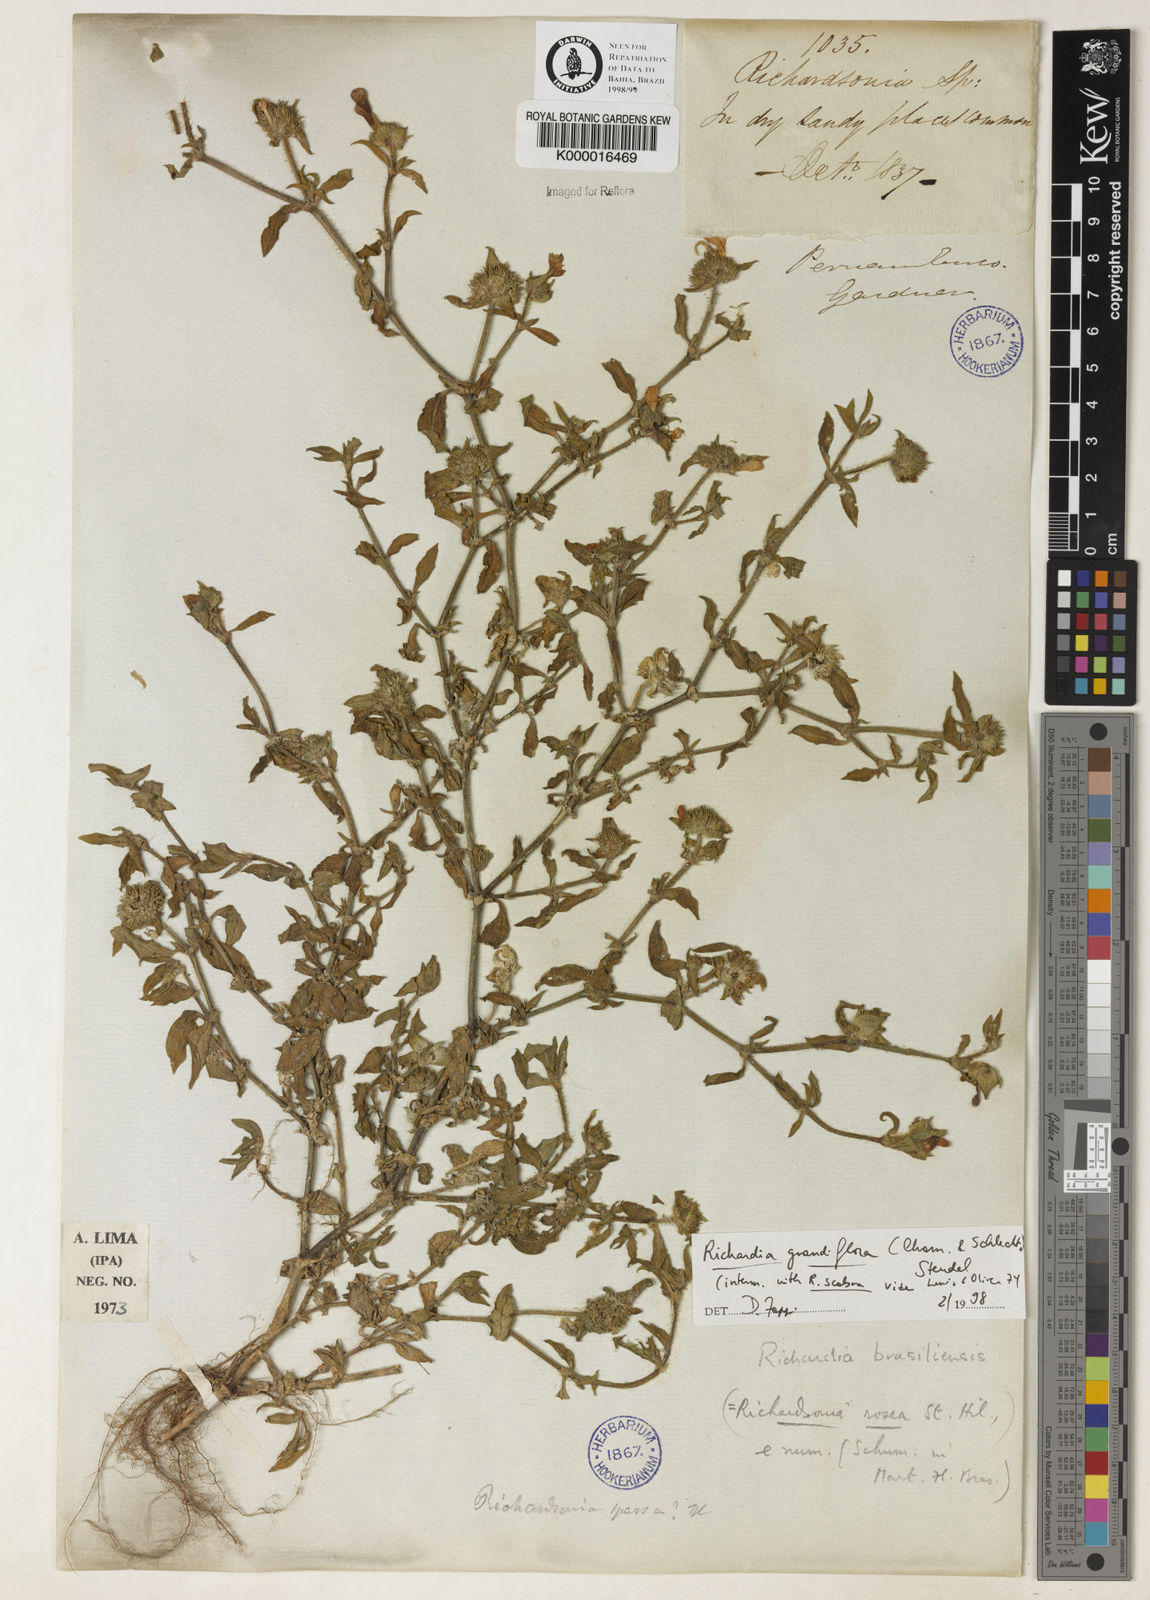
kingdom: Plantae
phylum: Tracheophyta
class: Magnoliopsida
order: Gentianales
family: Rubiaceae
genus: Richardia
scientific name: Richardia grandiflora
